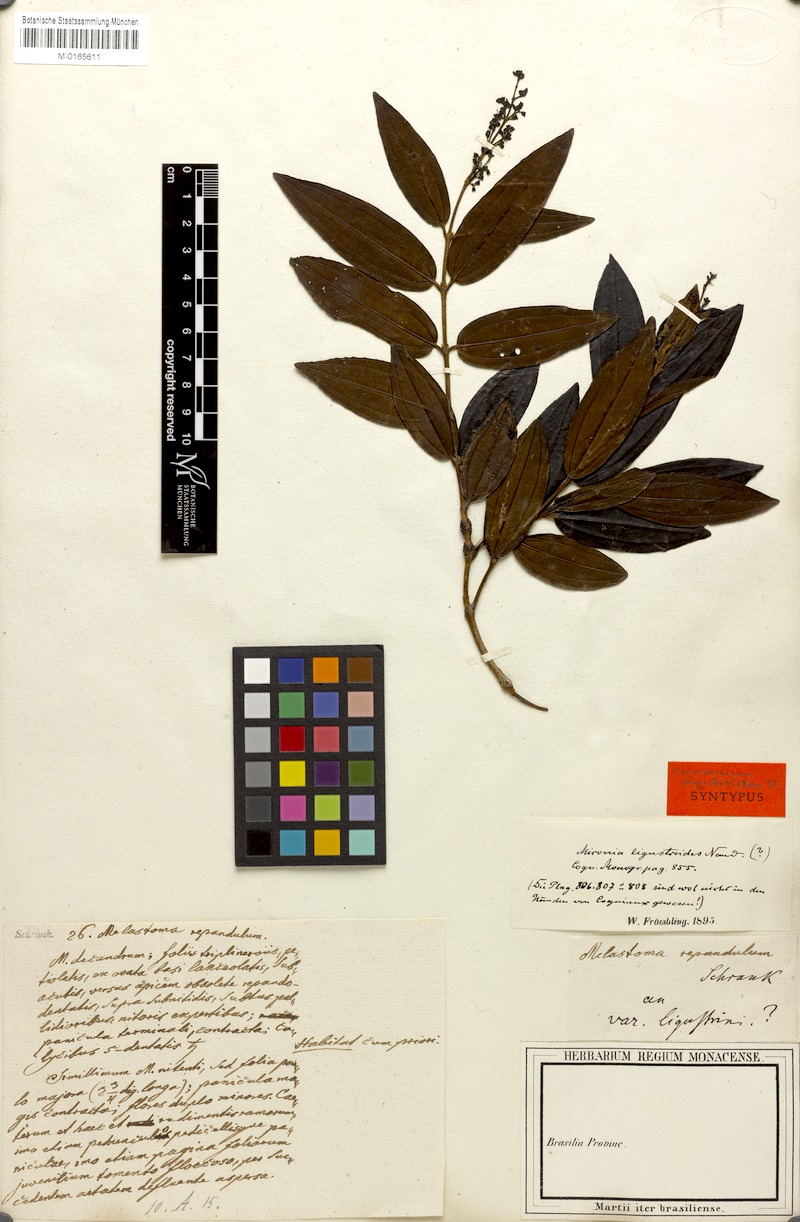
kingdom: Plantae
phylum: Tracheophyta
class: Magnoliopsida
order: Myrtales
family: Melastomataceae
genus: Miconia
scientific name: Miconia ligustroides
